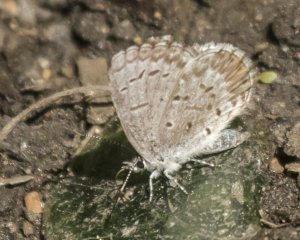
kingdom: Animalia
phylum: Arthropoda
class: Insecta
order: Lepidoptera
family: Lycaenidae
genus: Celastrina
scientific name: Celastrina lucia
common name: Northern Spring Azure
